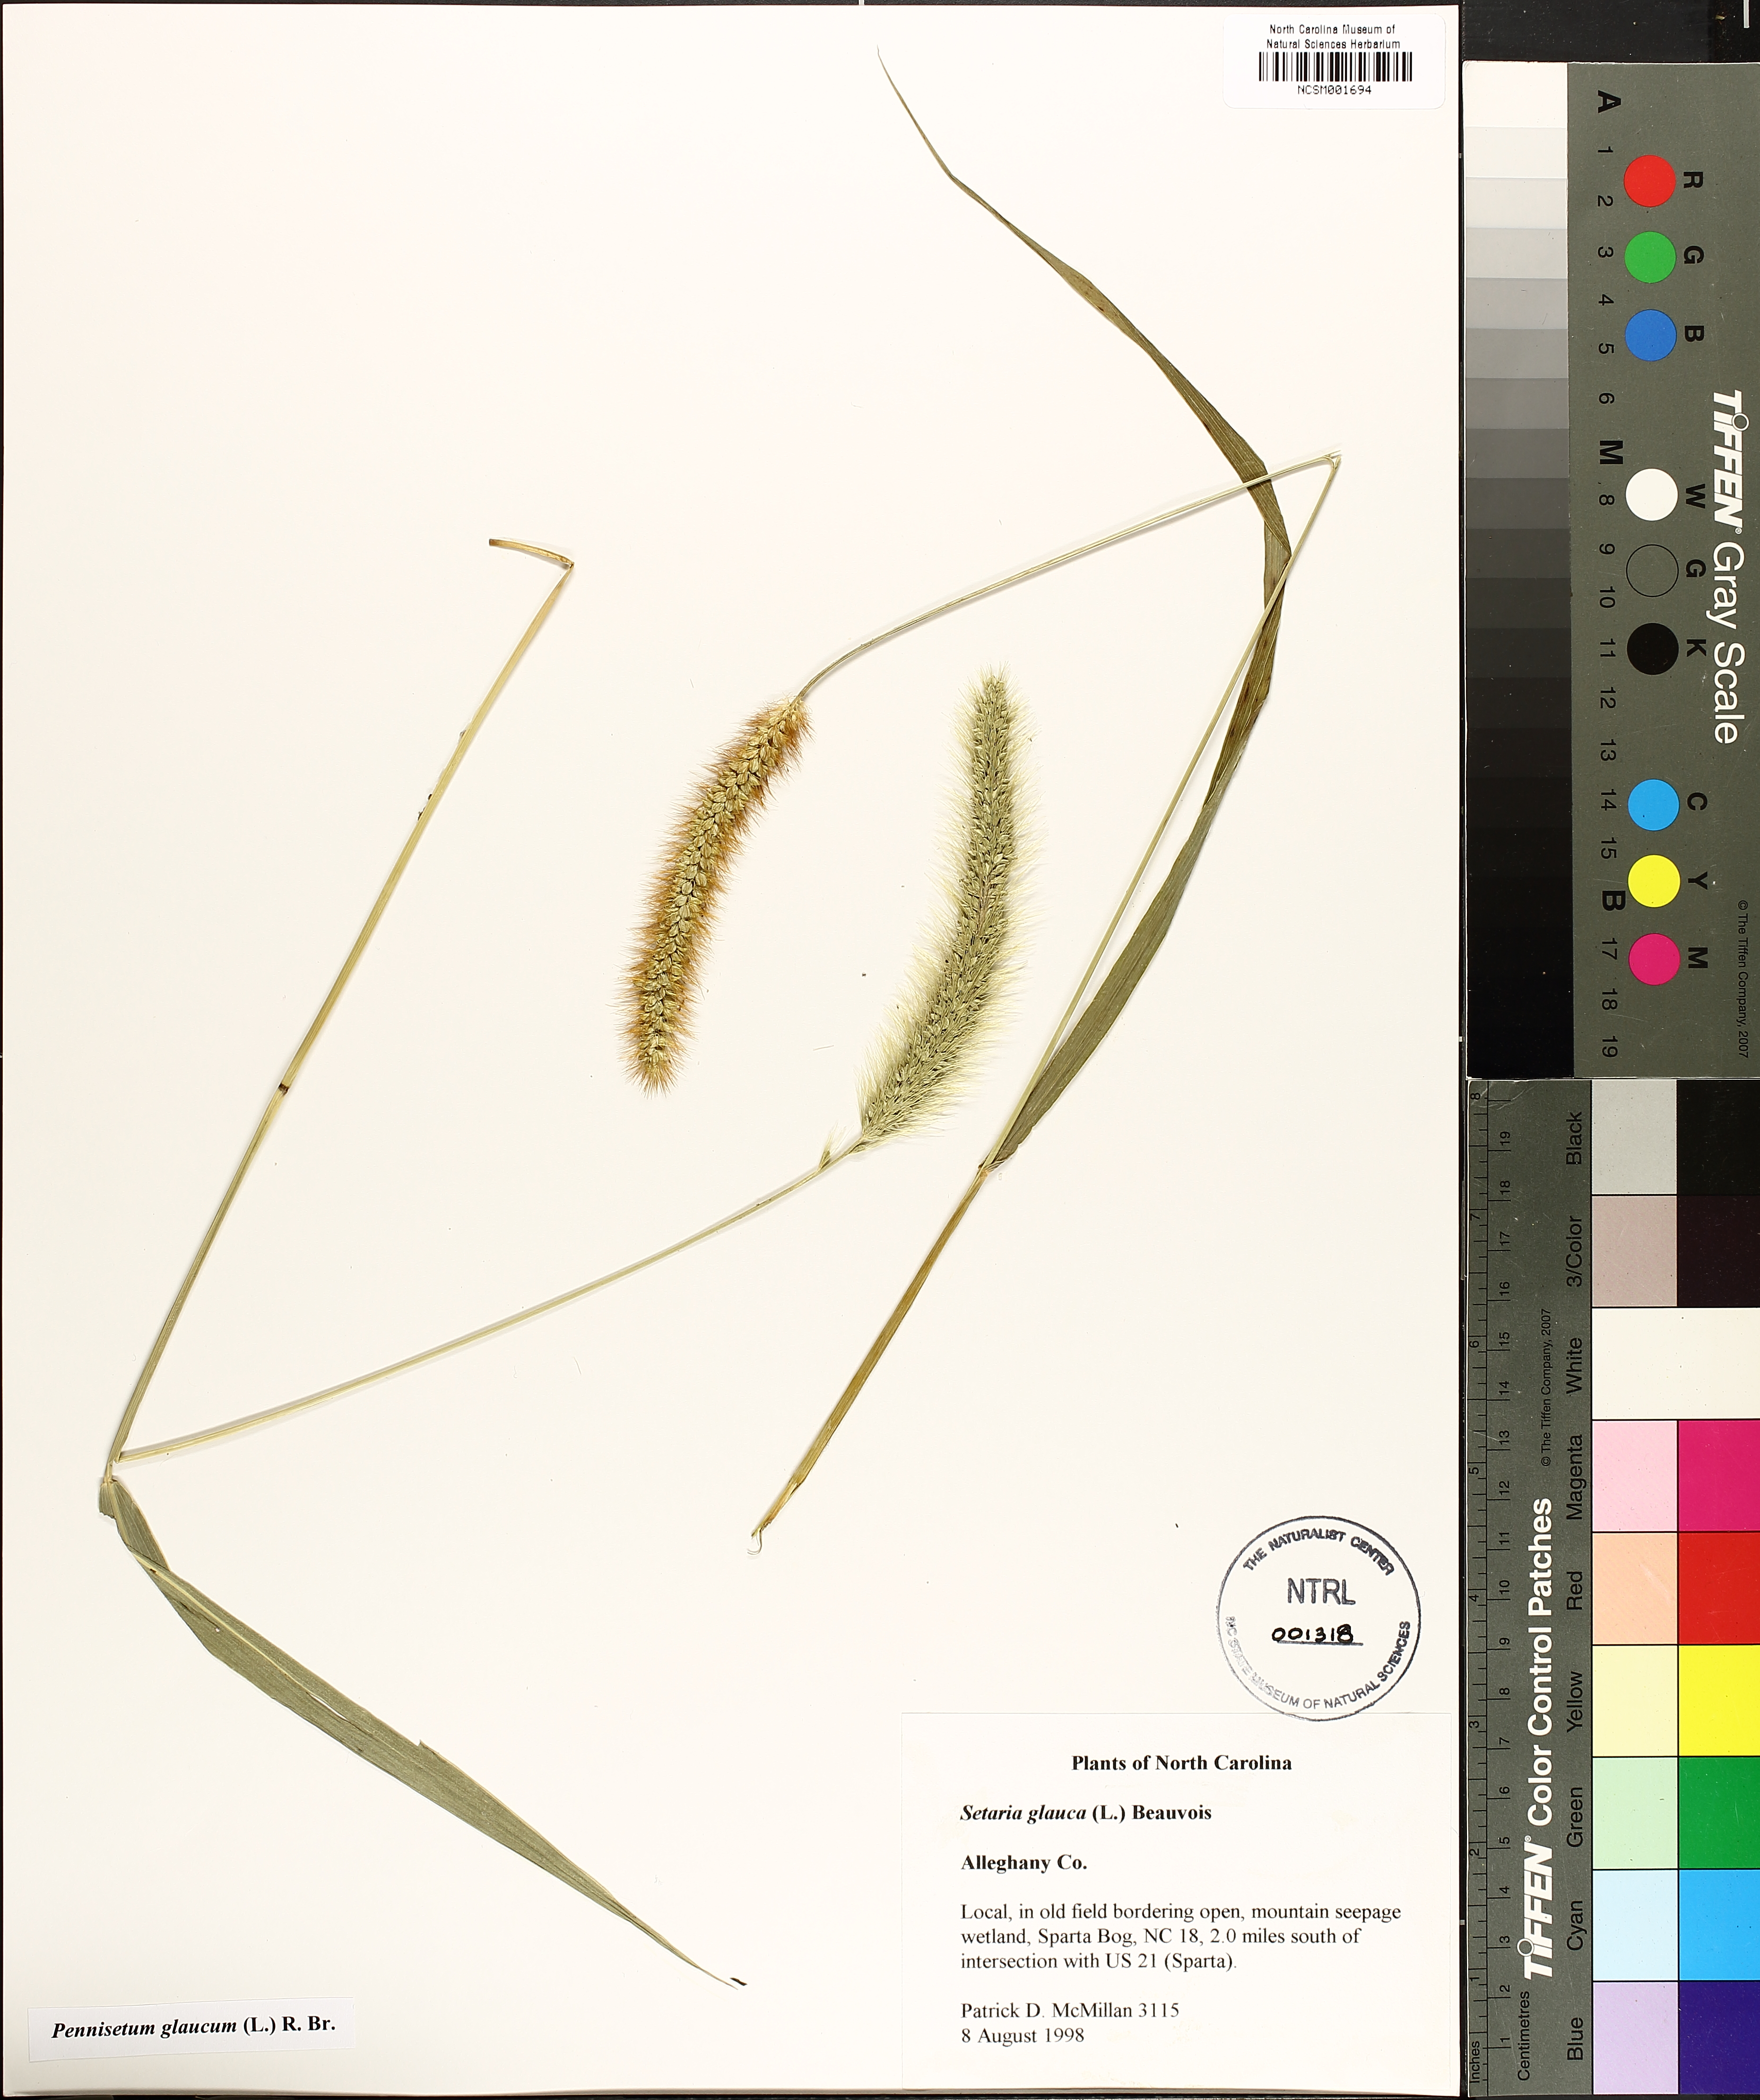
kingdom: Plantae
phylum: Tracheophyta
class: Liliopsida
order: Poales
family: Poaceae
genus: Cenchrus
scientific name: Cenchrus americanus
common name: Pearl millet
